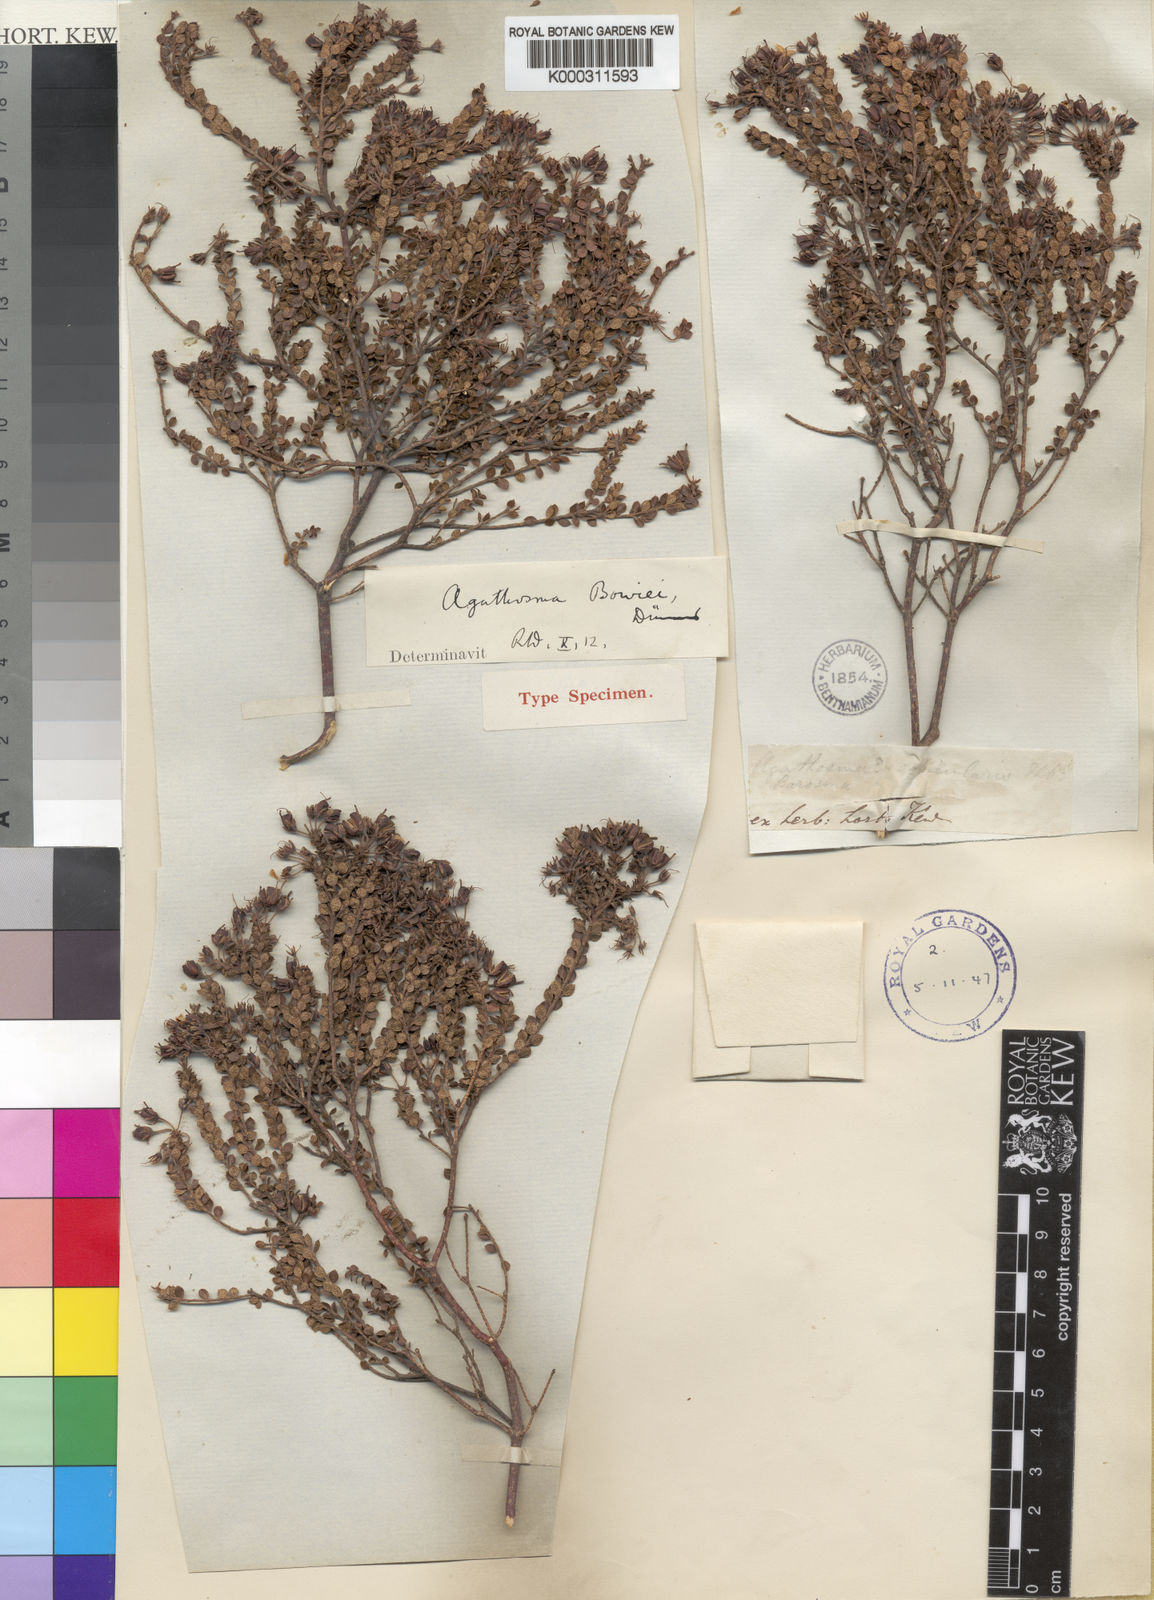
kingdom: Plantae
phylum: Tracheophyta
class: Magnoliopsida
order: Sapindales
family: Rutaceae
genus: Agathosma
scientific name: Agathosma martiana
